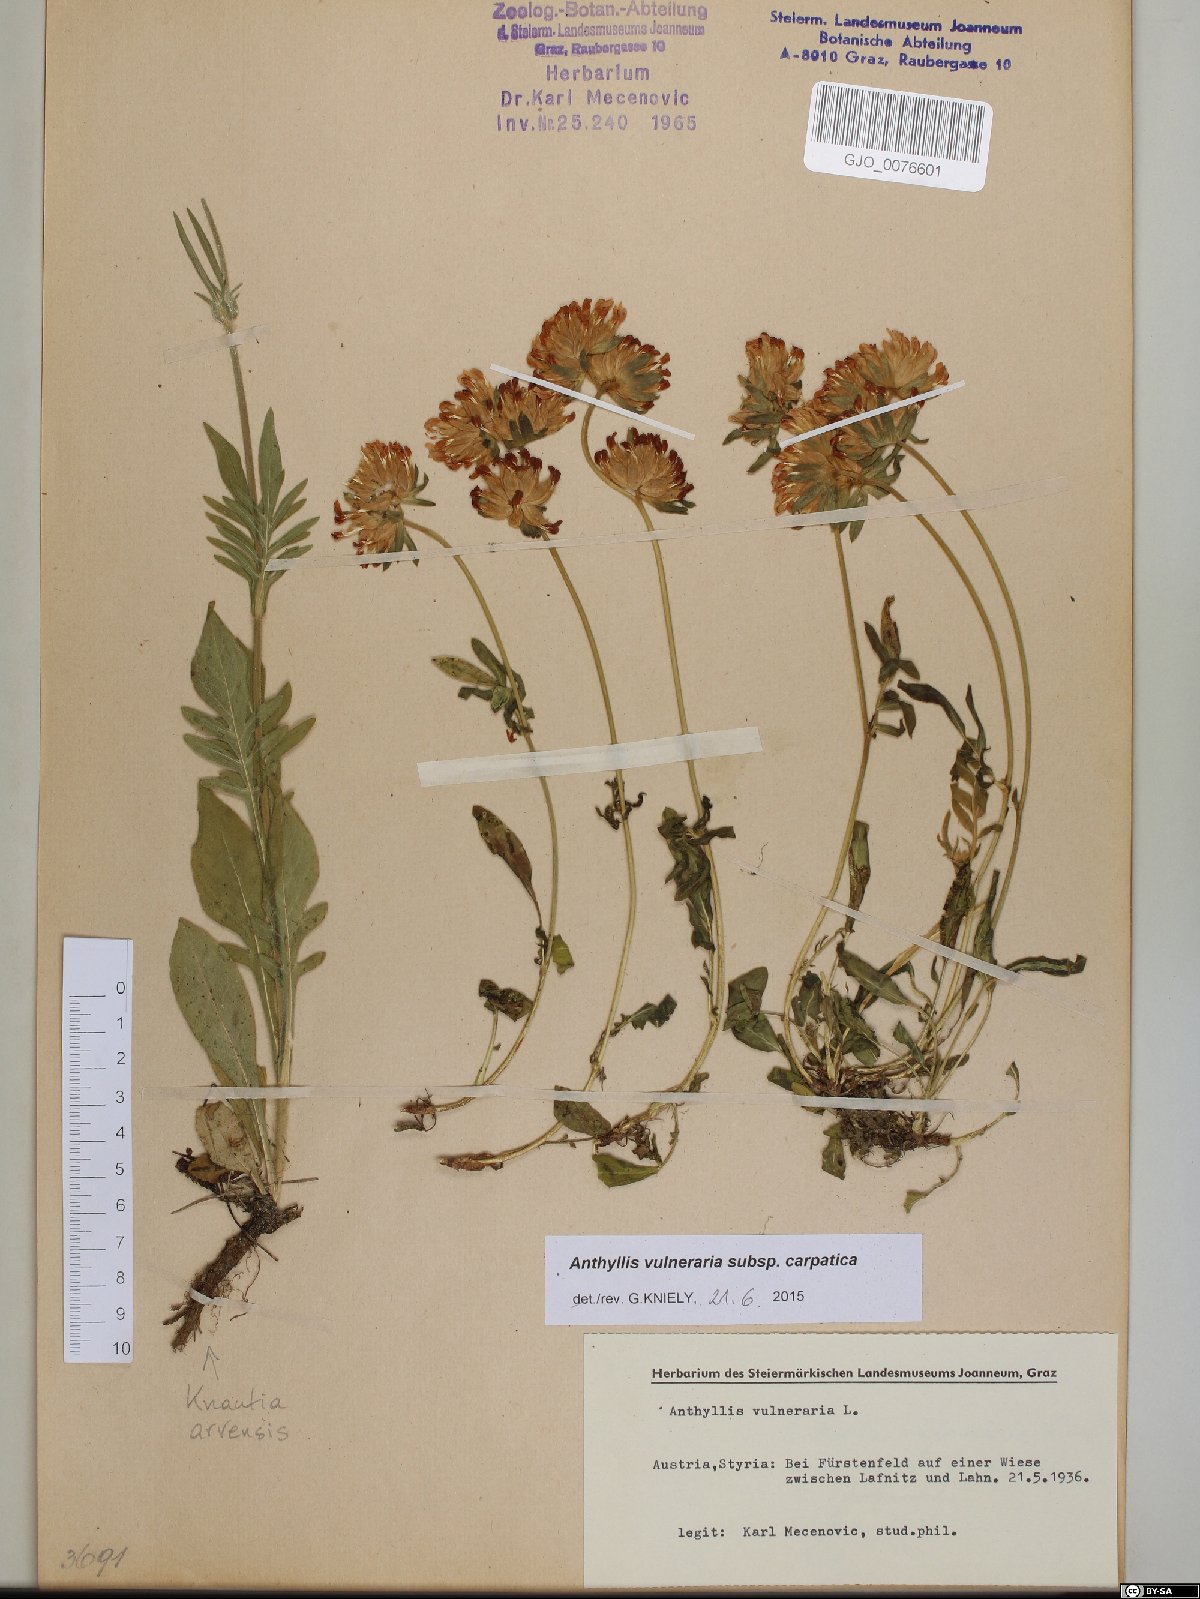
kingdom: Plantae
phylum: Tracheophyta
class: Magnoliopsida
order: Fabales
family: Fabaceae
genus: Anthyllis
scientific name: Anthyllis vulneraria
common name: Kidney vetch
